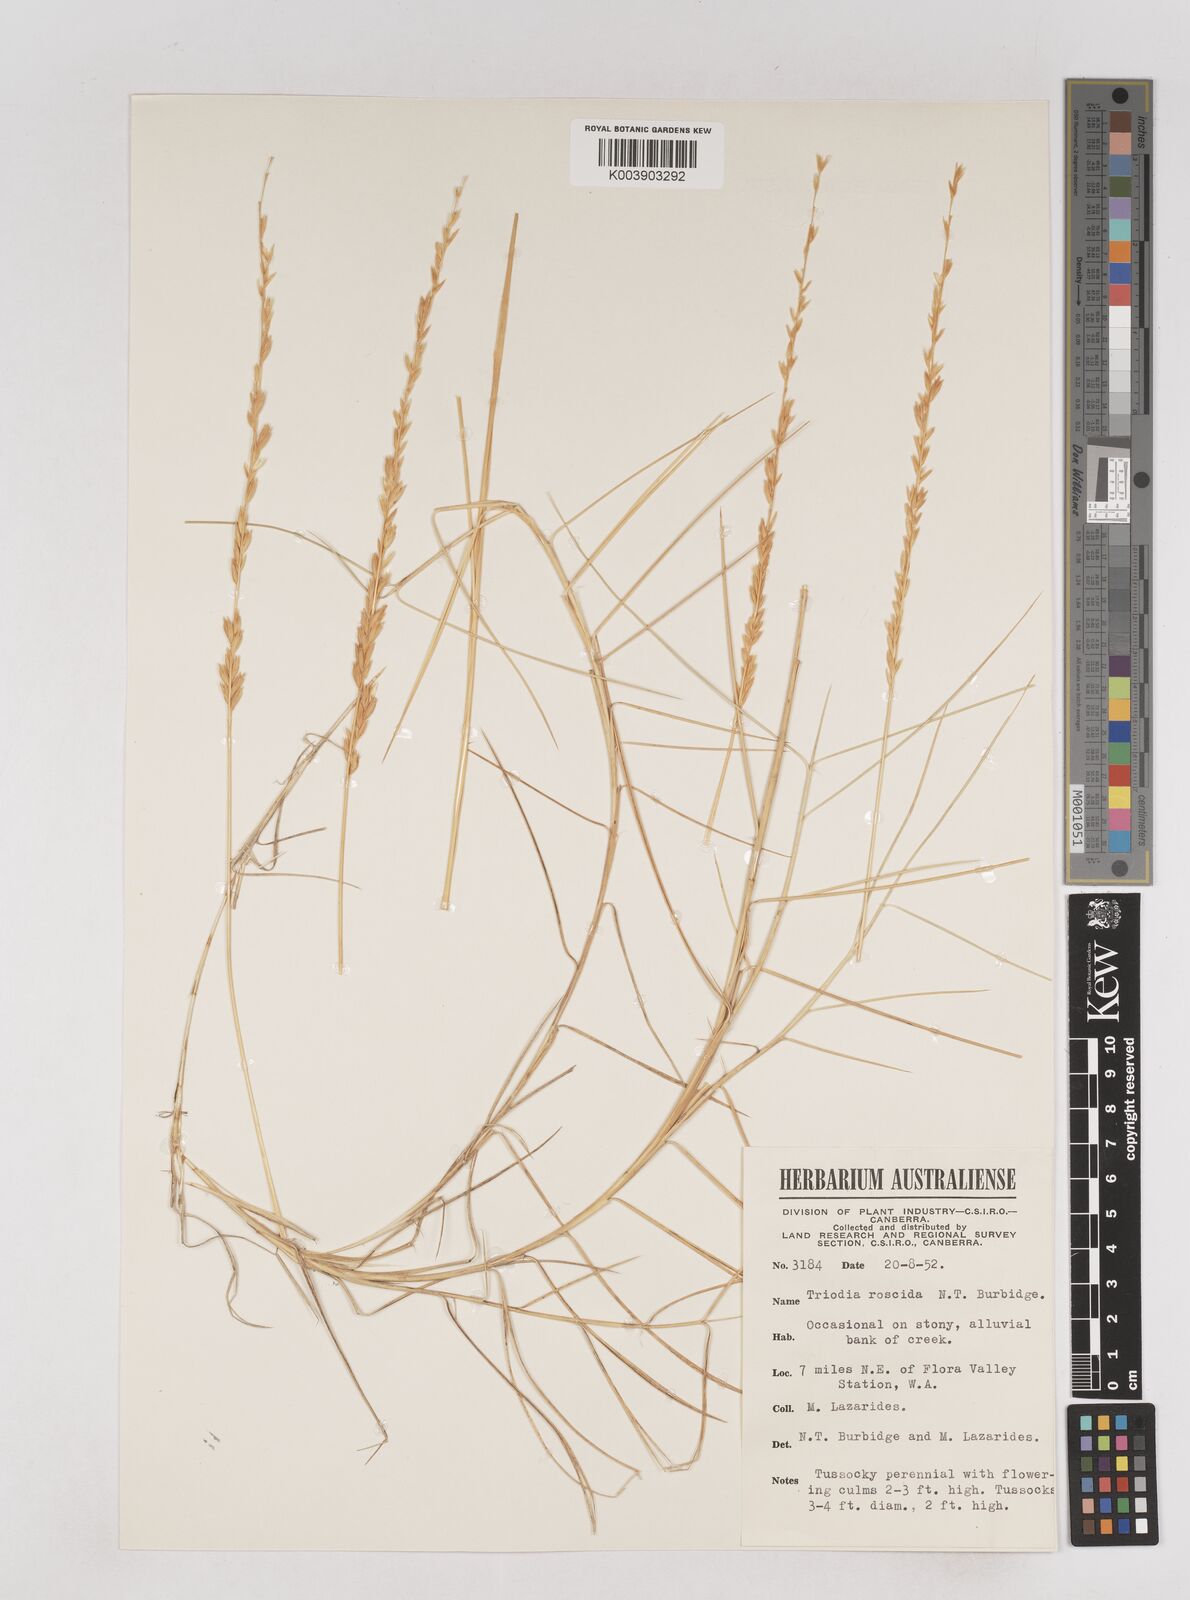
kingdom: Plantae
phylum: Tracheophyta
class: Liliopsida
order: Poales
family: Poaceae
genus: Triodia
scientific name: Triodia roscida
